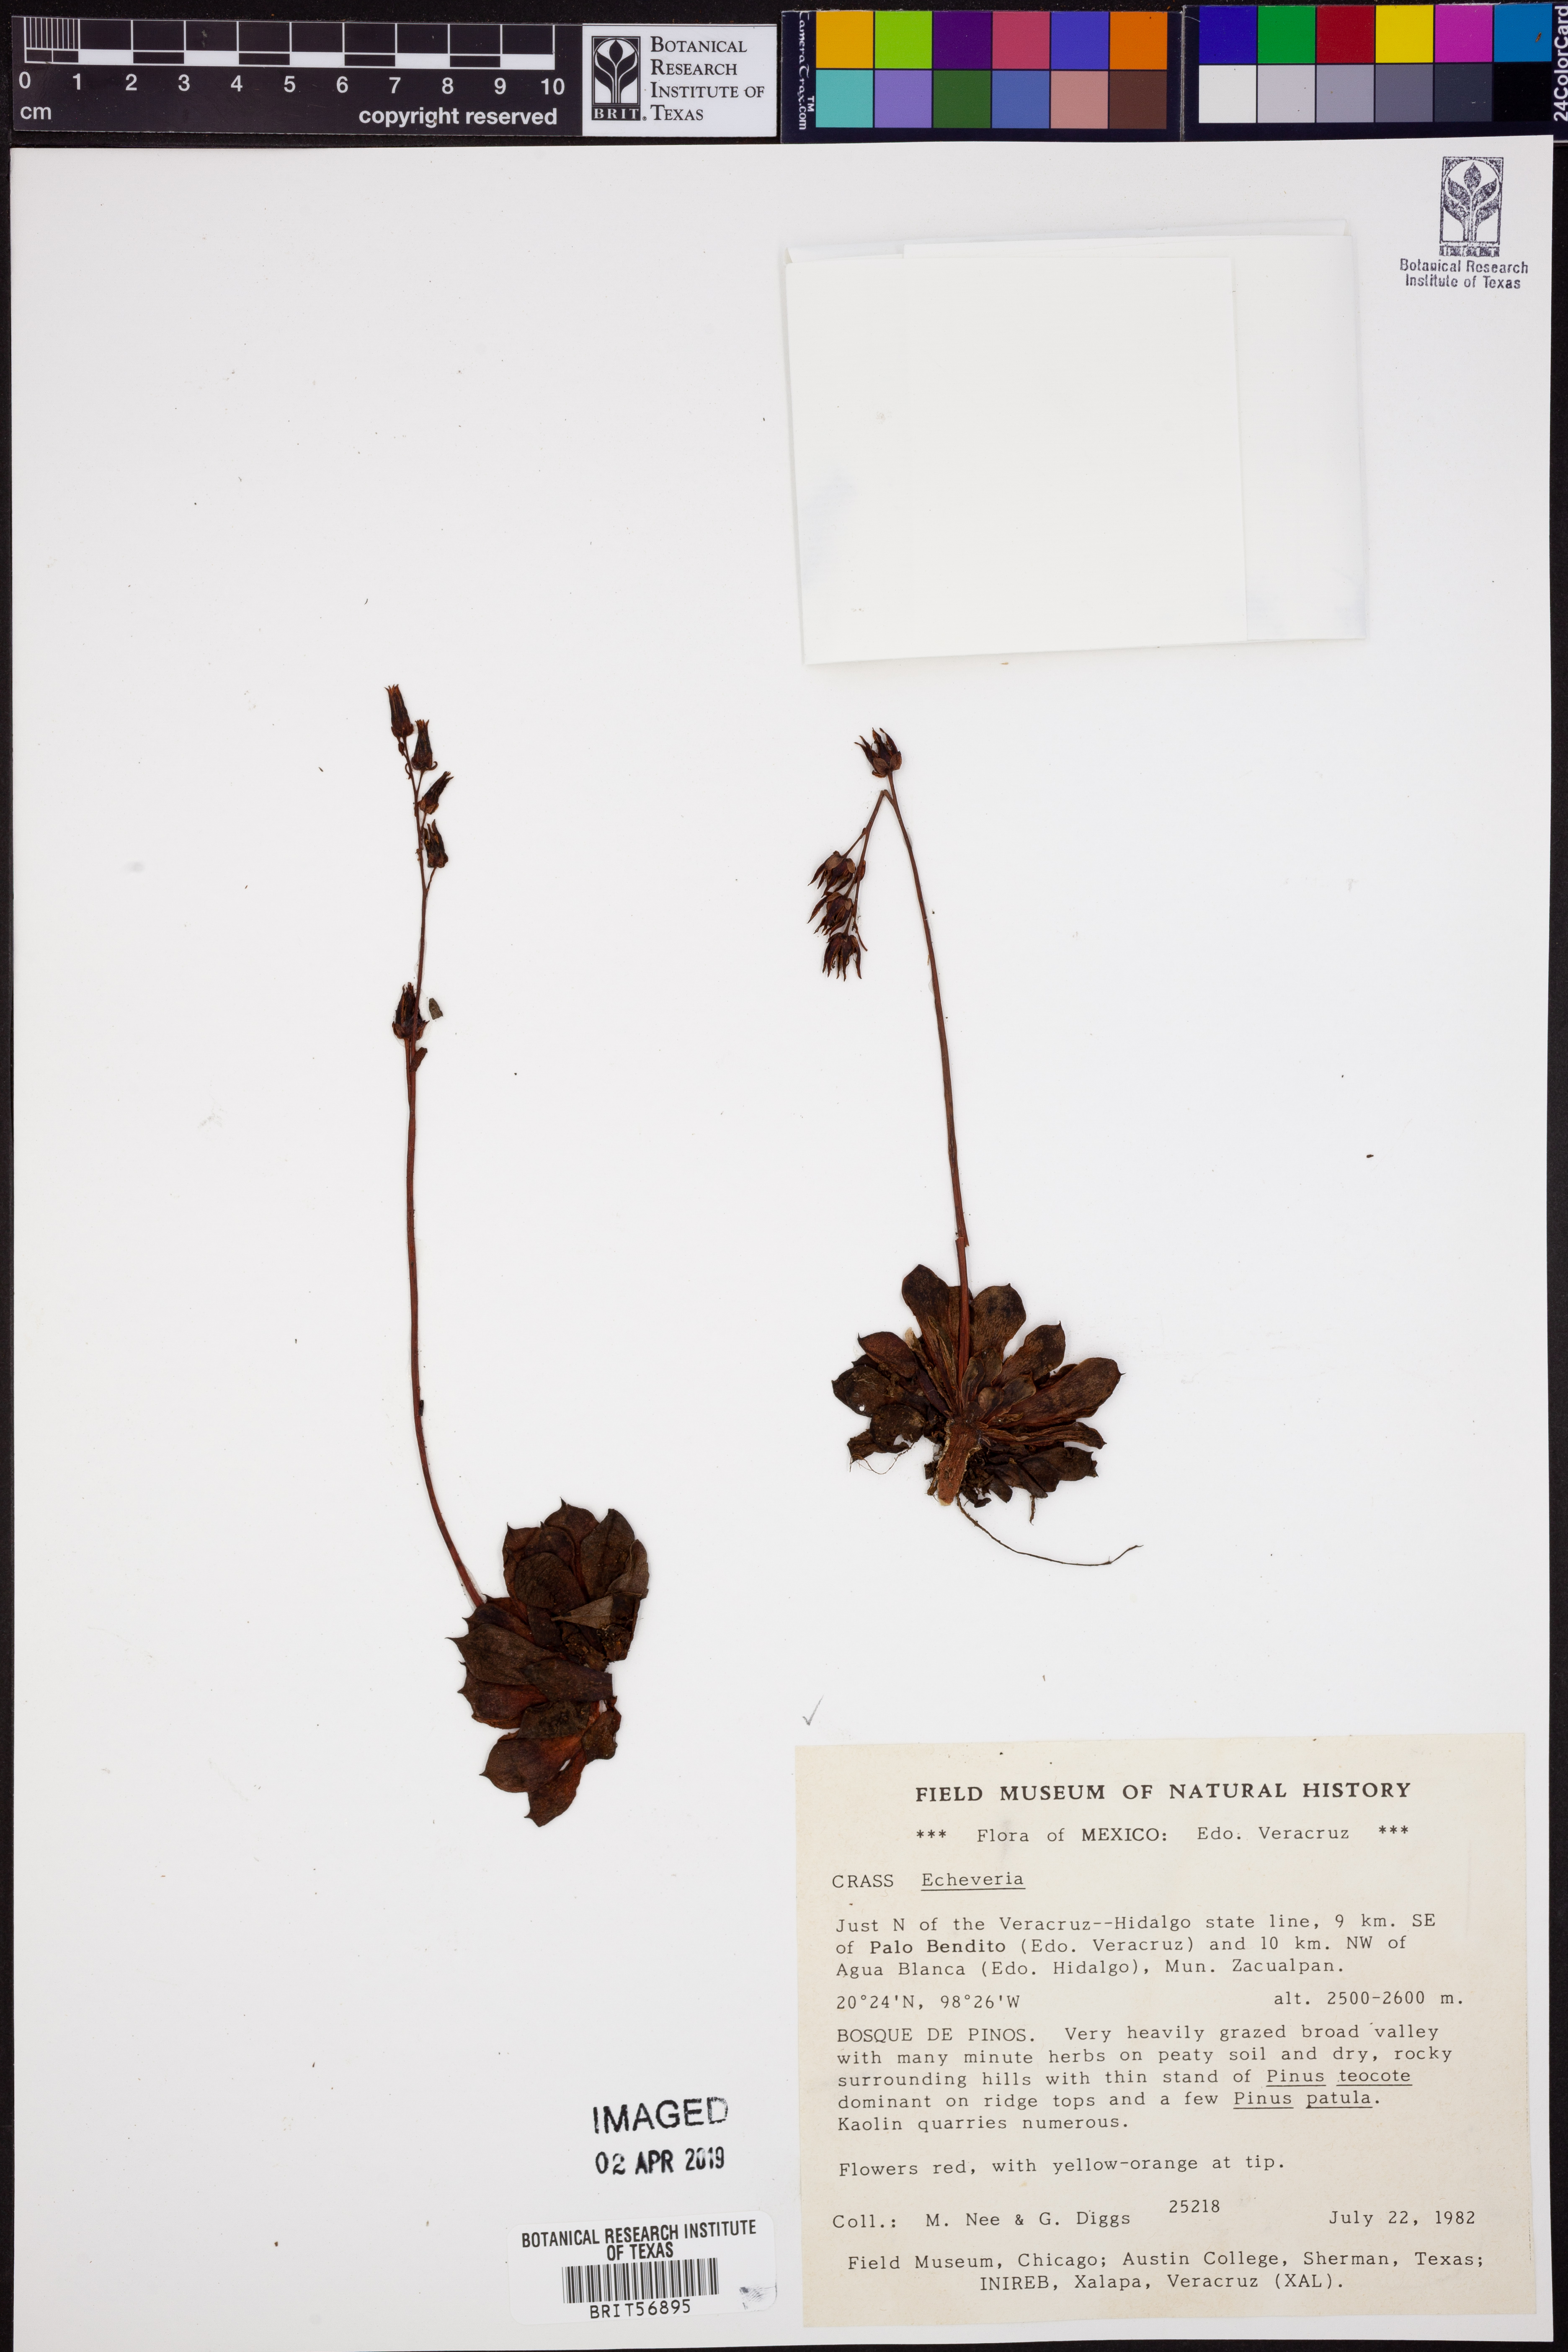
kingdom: Plantae
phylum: Tracheophyta
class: Magnoliopsida
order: Saxifragales
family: Crassulaceae
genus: Echeveria
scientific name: Echeveria
